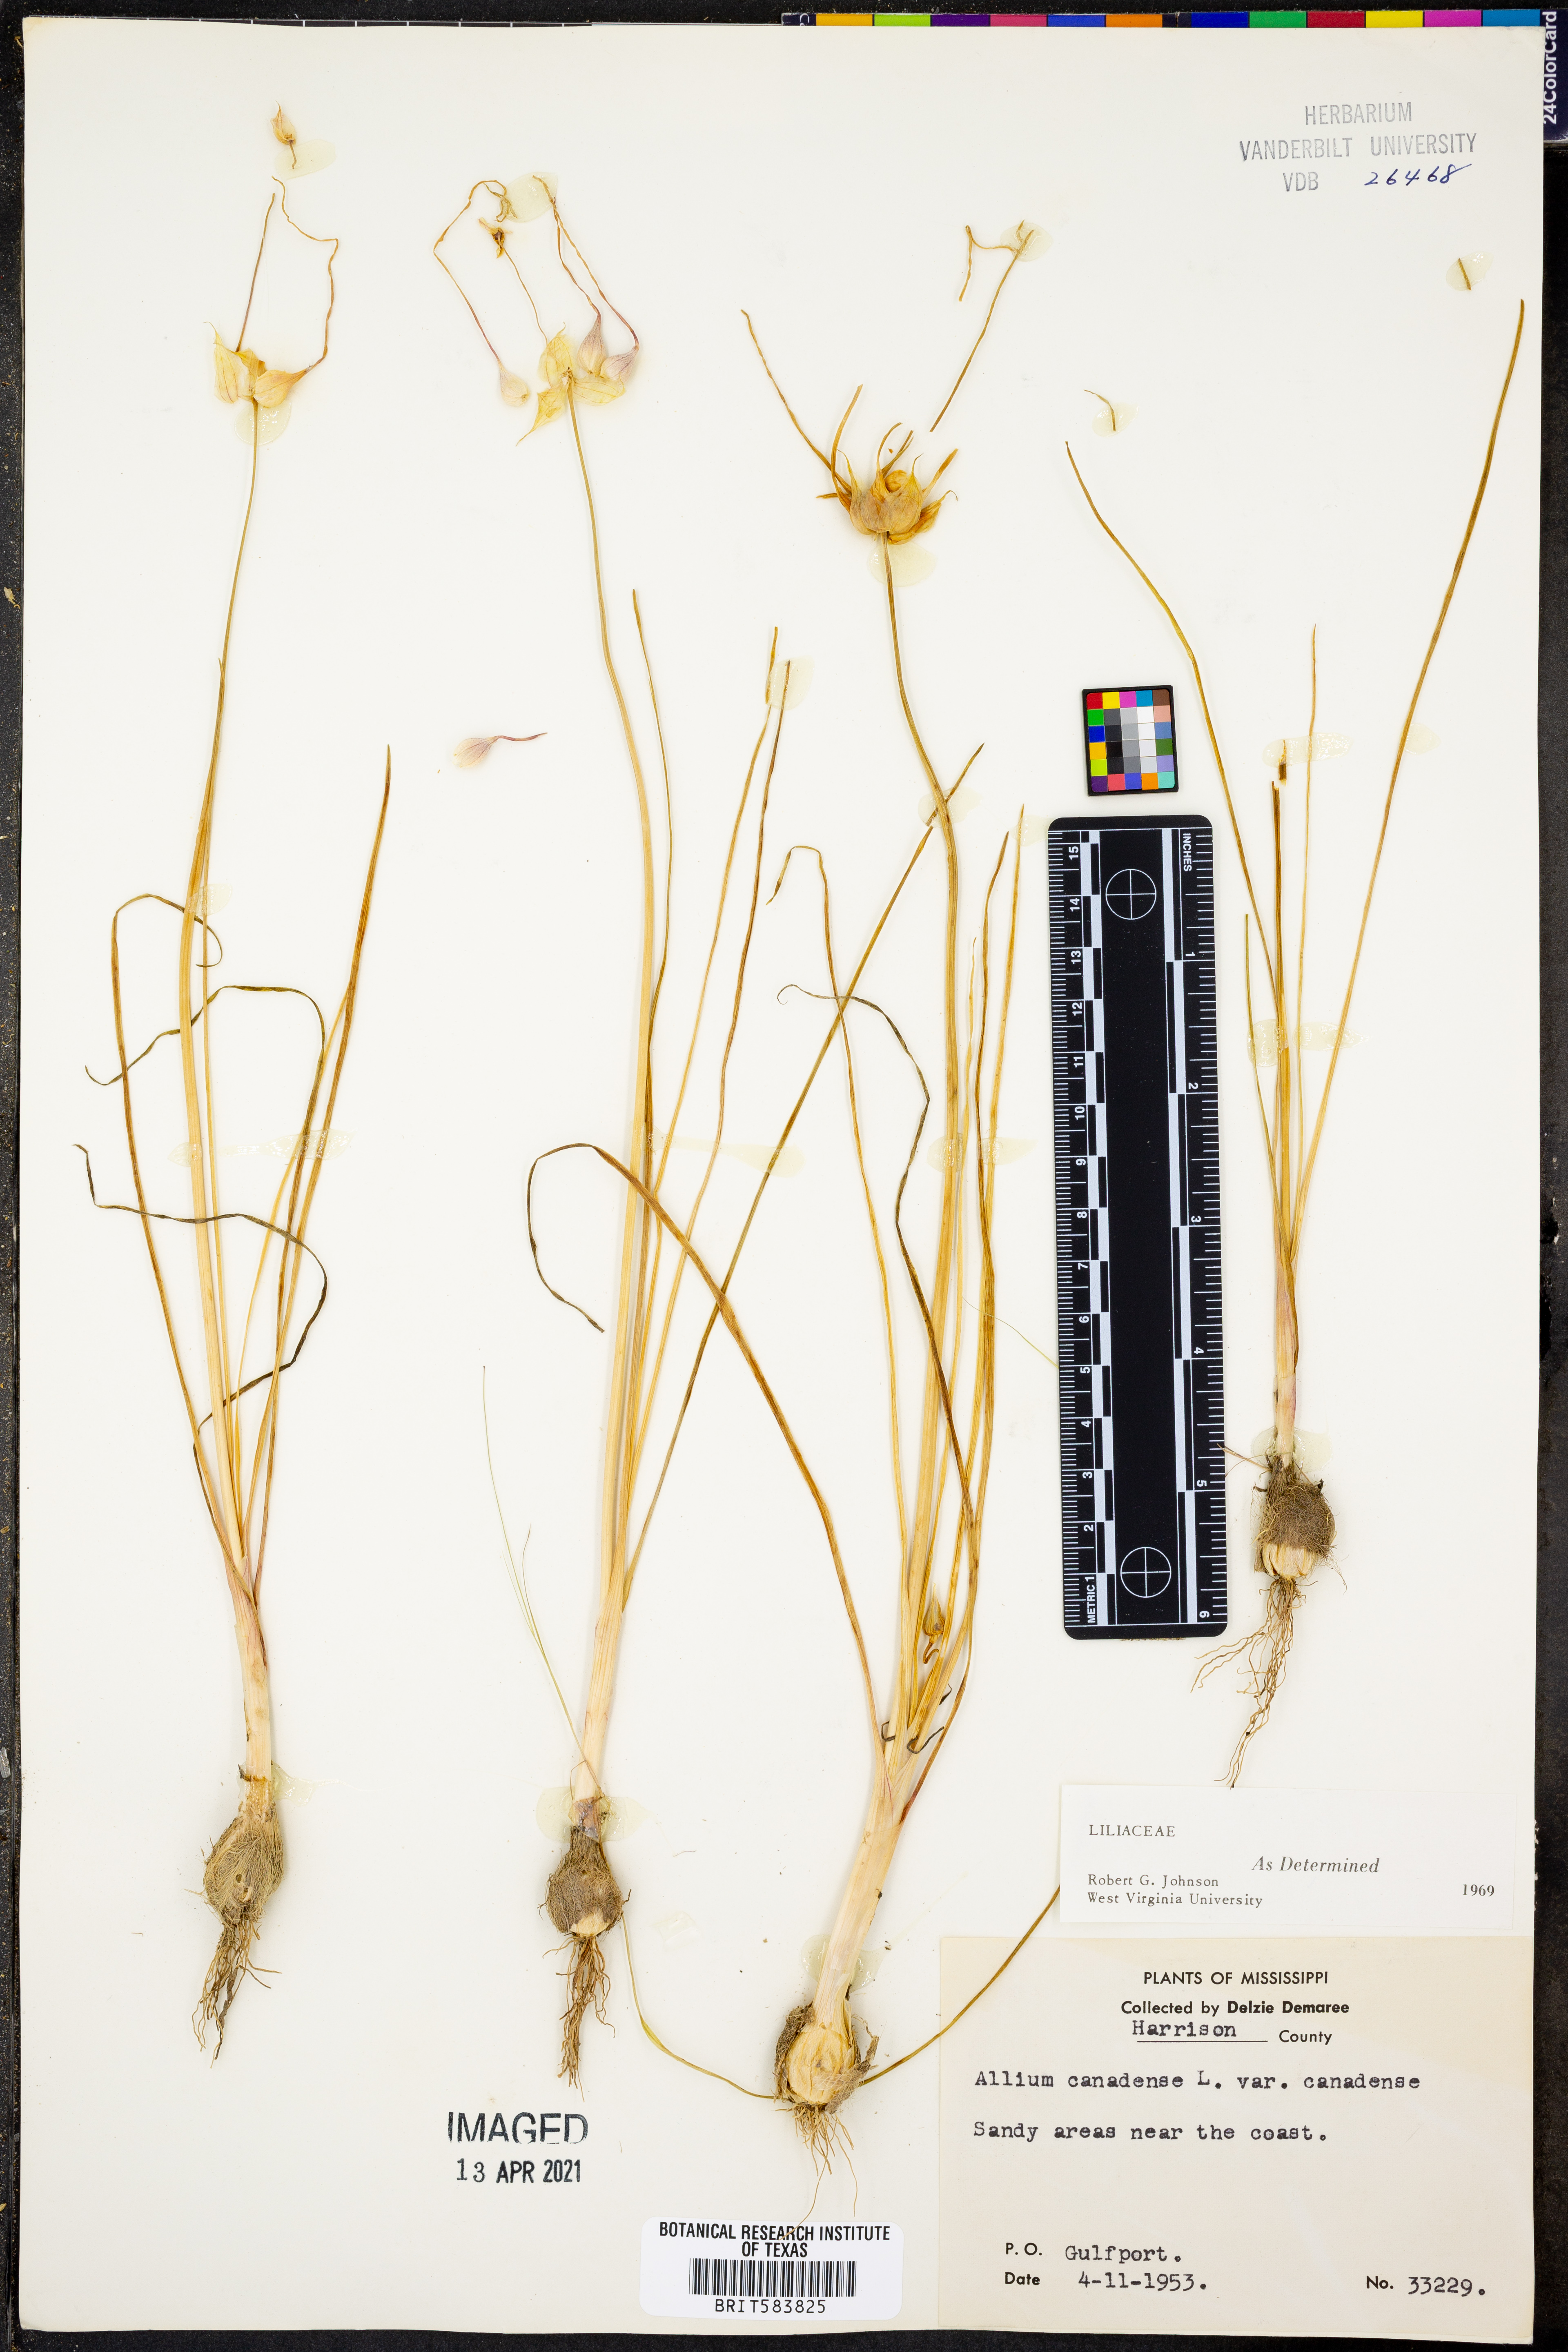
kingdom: Plantae
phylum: Tracheophyta
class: Liliopsida
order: Asparagales
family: Amaryllidaceae
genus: Allium
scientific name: Allium canadense
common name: Meadow garlic
